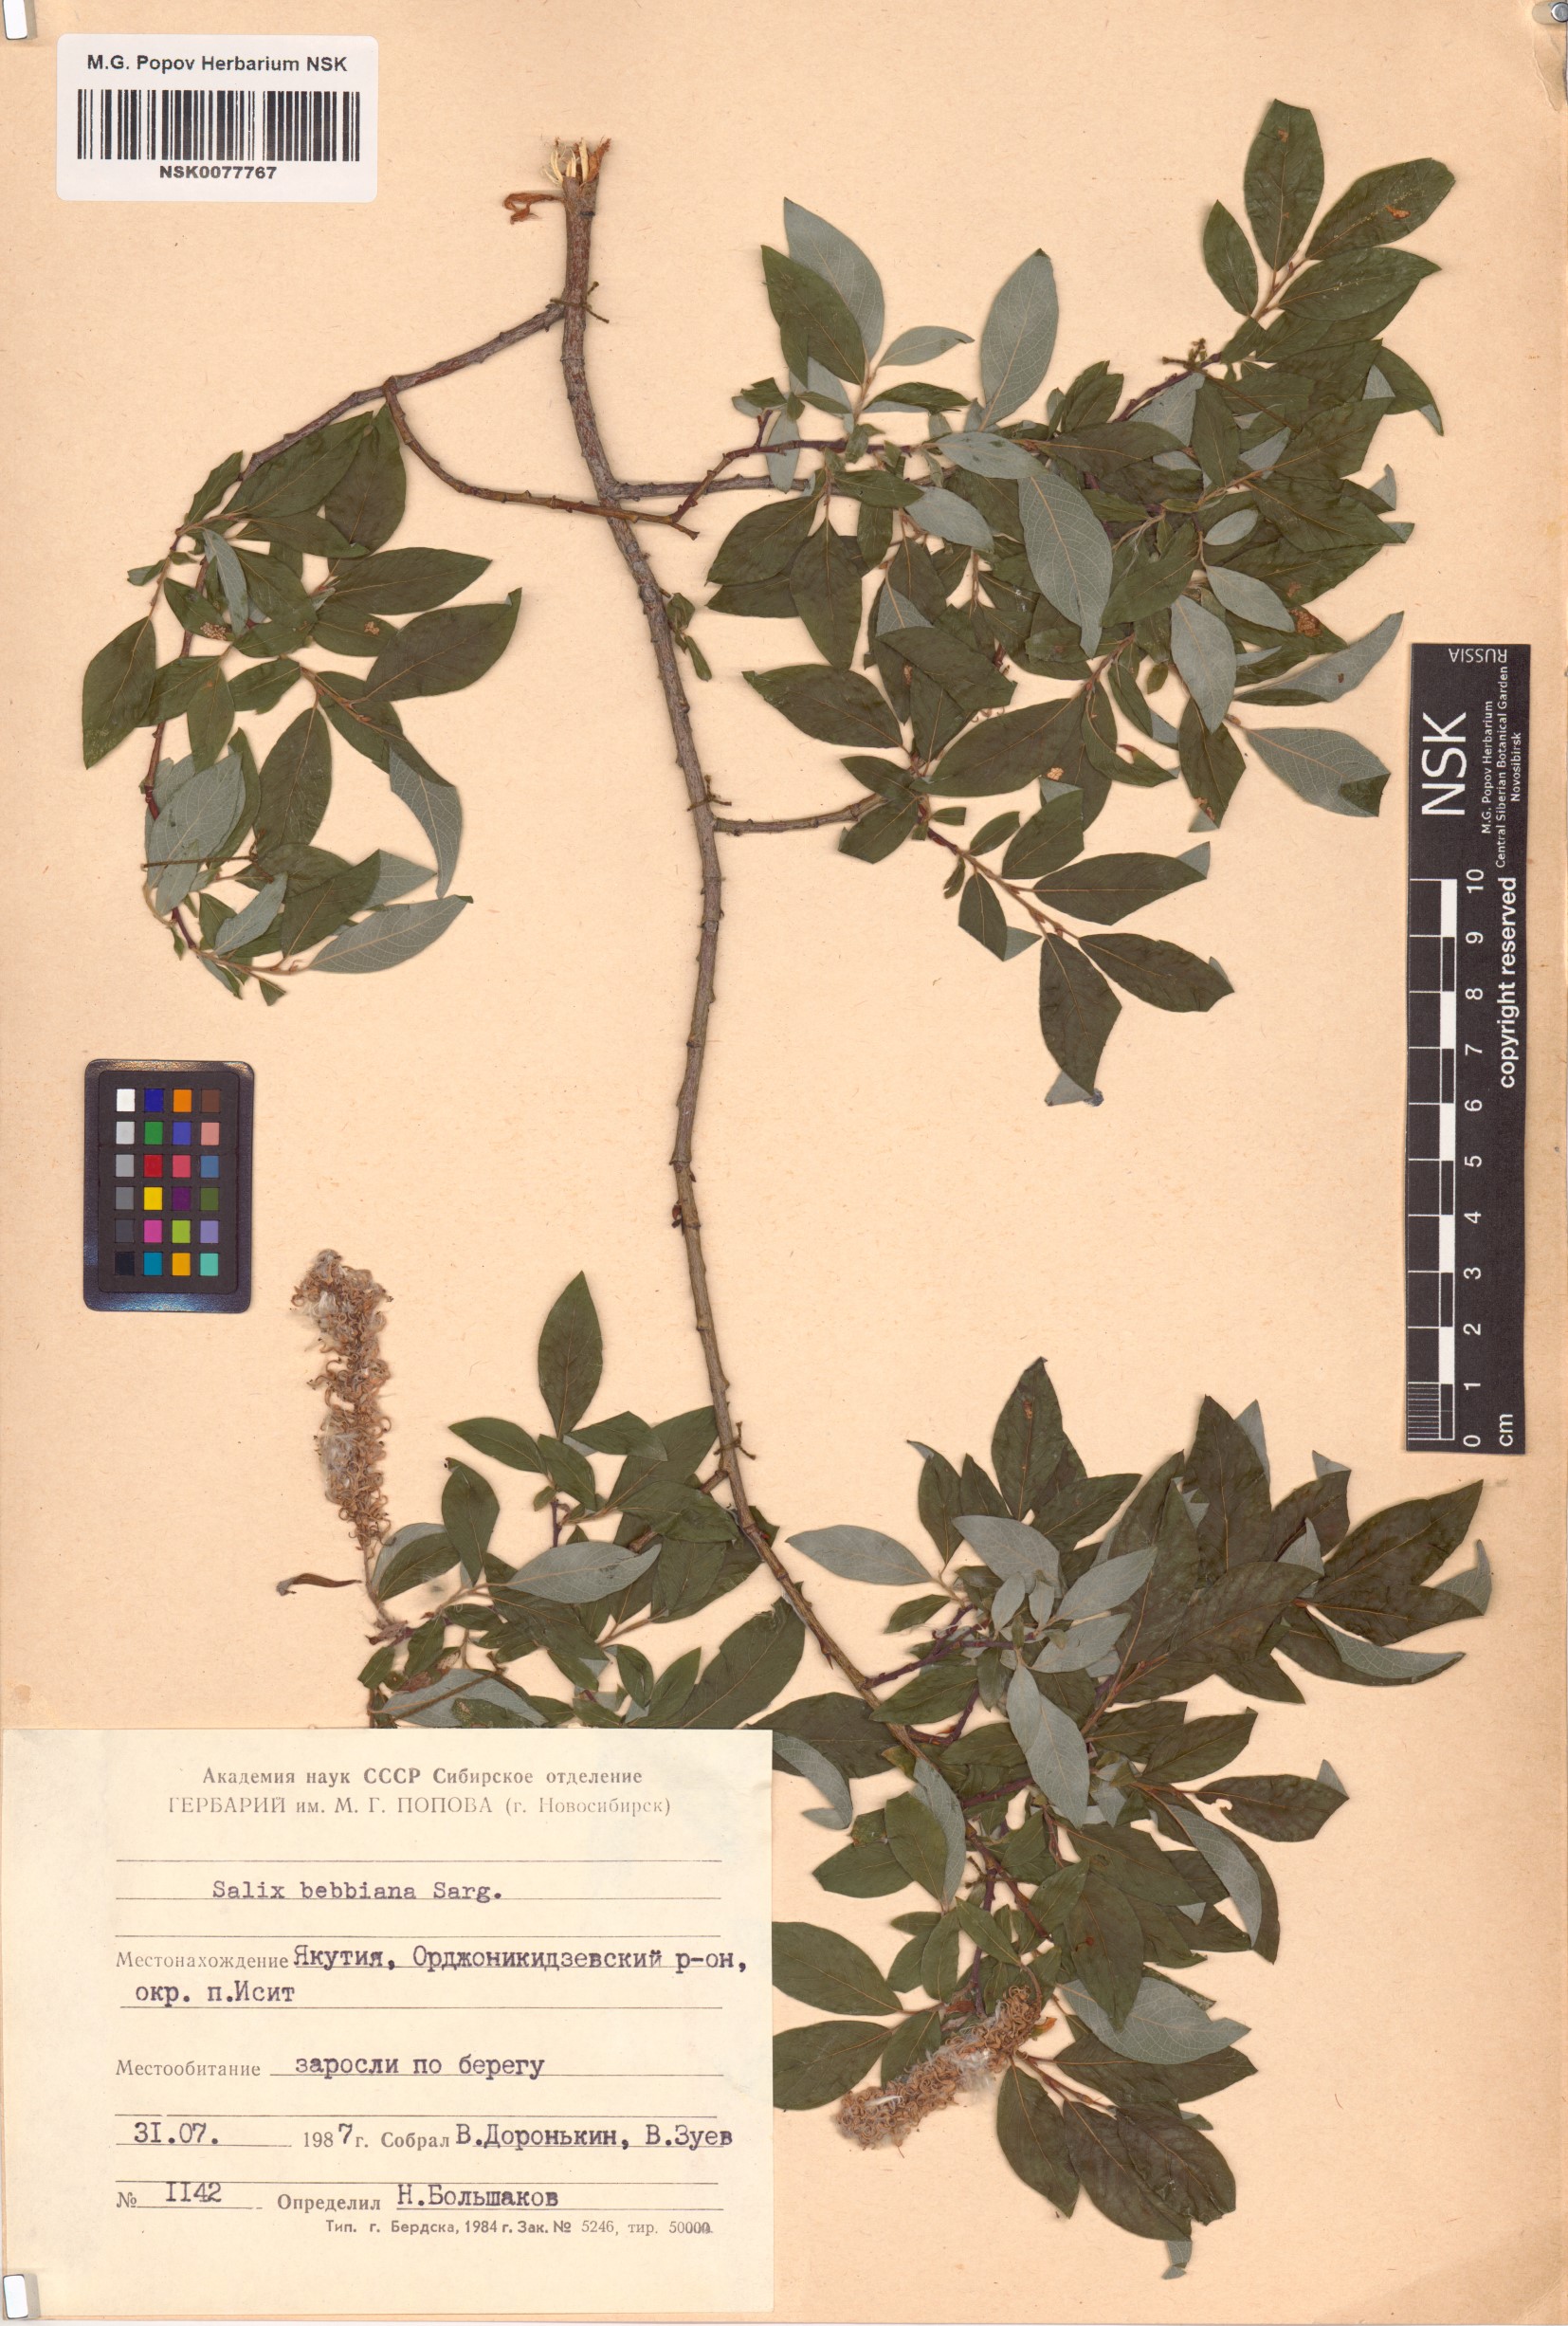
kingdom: Plantae
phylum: Tracheophyta
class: Magnoliopsida
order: Malpighiales
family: Salicaceae
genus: Salix
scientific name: Salix bebbiana
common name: Bebb's willow
